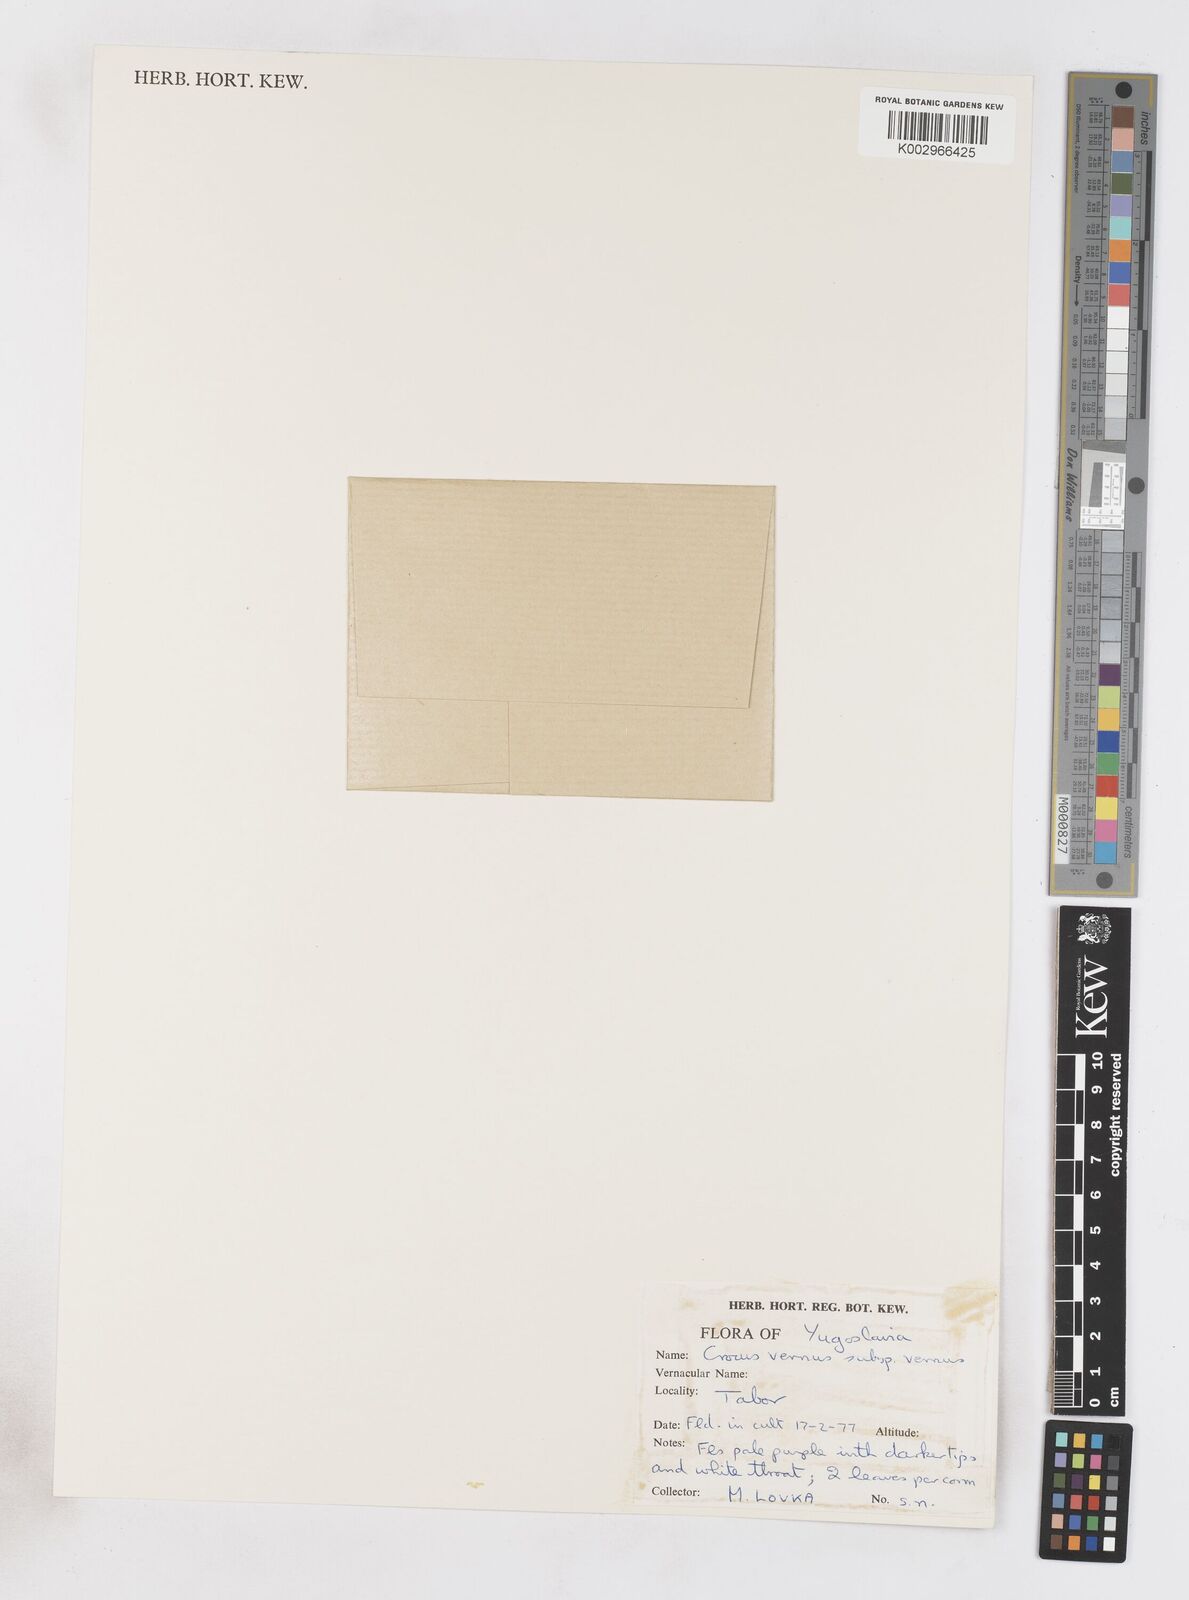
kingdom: Plantae
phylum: Tracheophyta
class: Liliopsida
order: Asparagales
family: Iridaceae
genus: Crocus
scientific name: Crocus vernus
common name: Spring crocus
